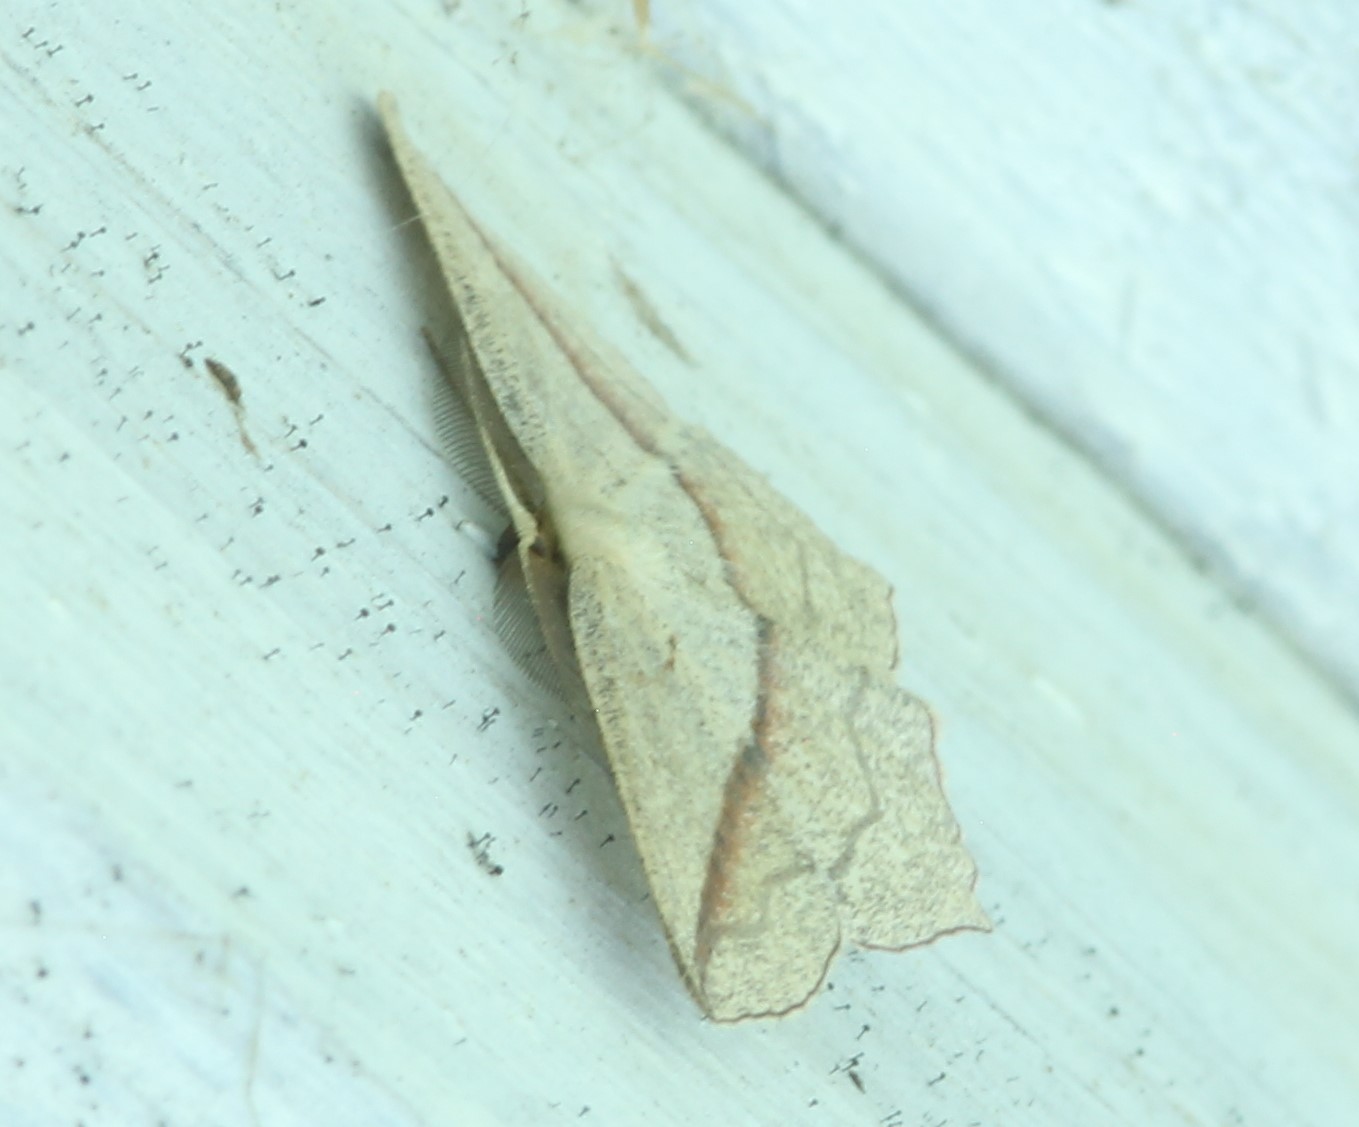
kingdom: Animalia
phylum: Arthropoda
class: Insecta
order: Lepidoptera
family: Geometridae
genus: Timandra
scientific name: Timandra comae
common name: Blood-vein
